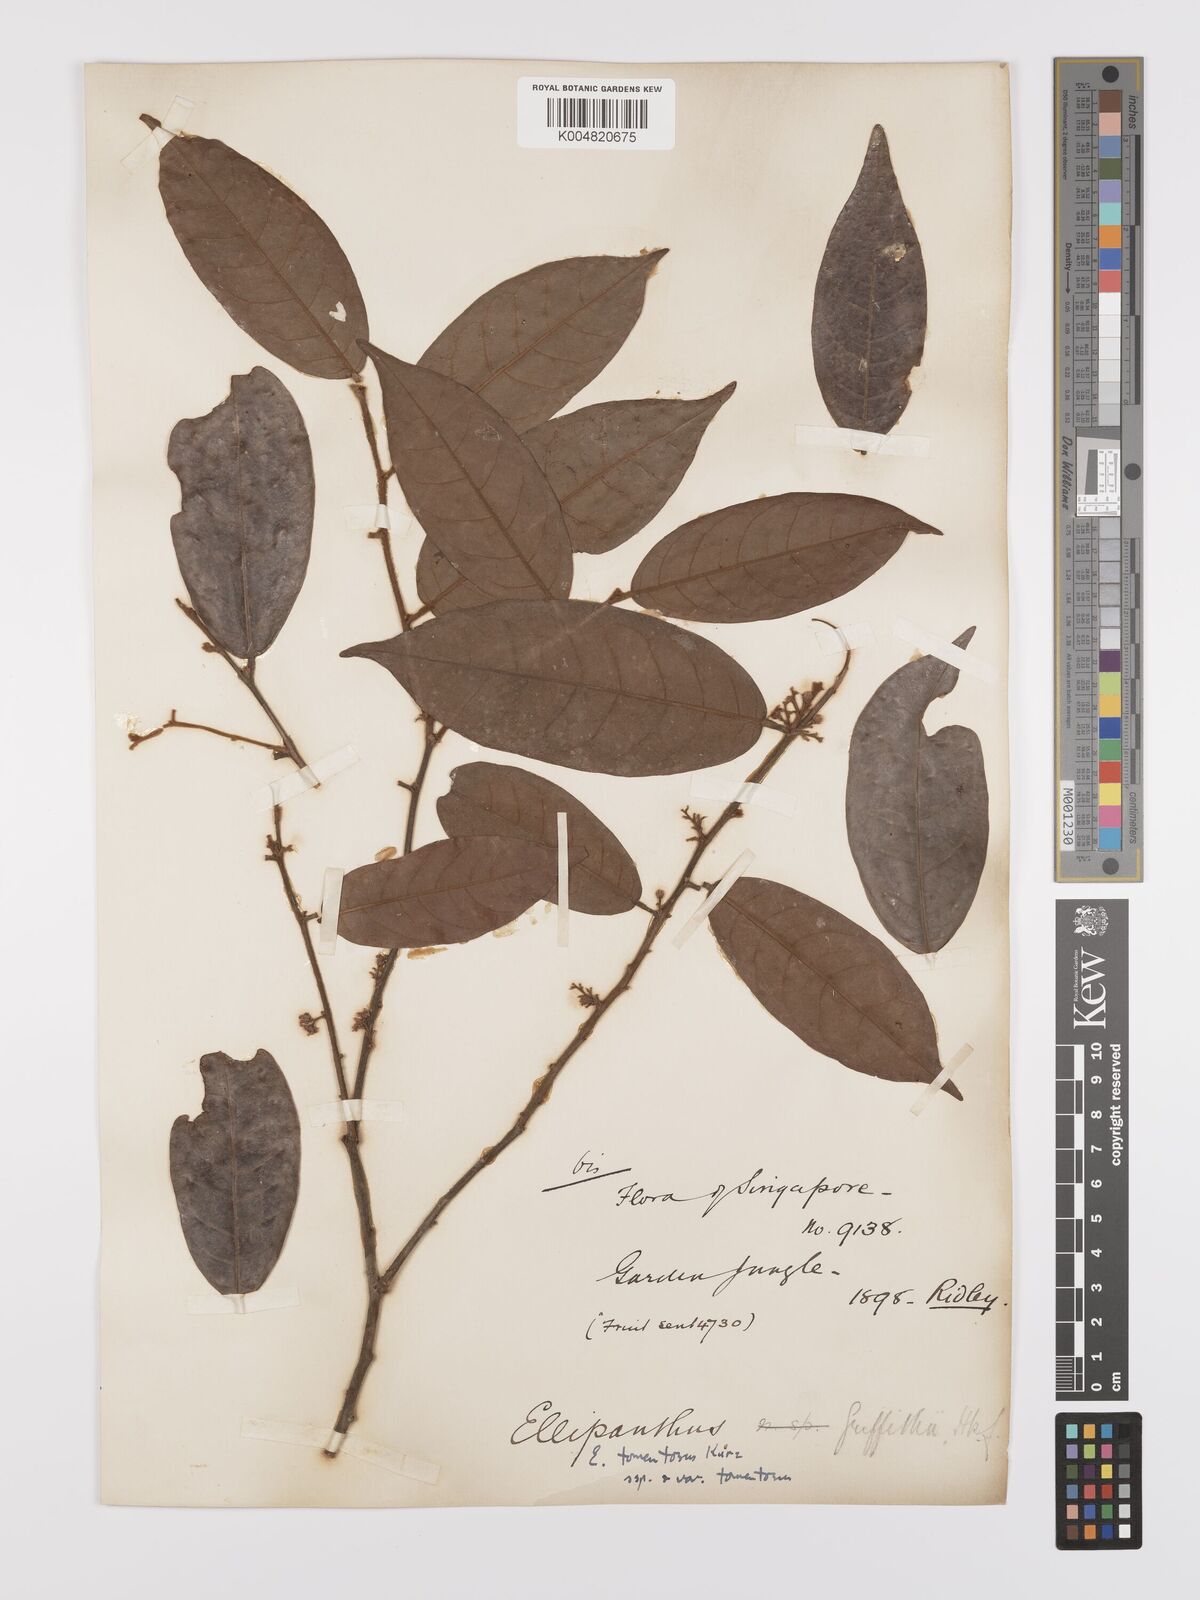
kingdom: Plantae
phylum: Tracheophyta
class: Magnoliopsida
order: Oxalidales
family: Connaraceae
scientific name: Connaraceae
